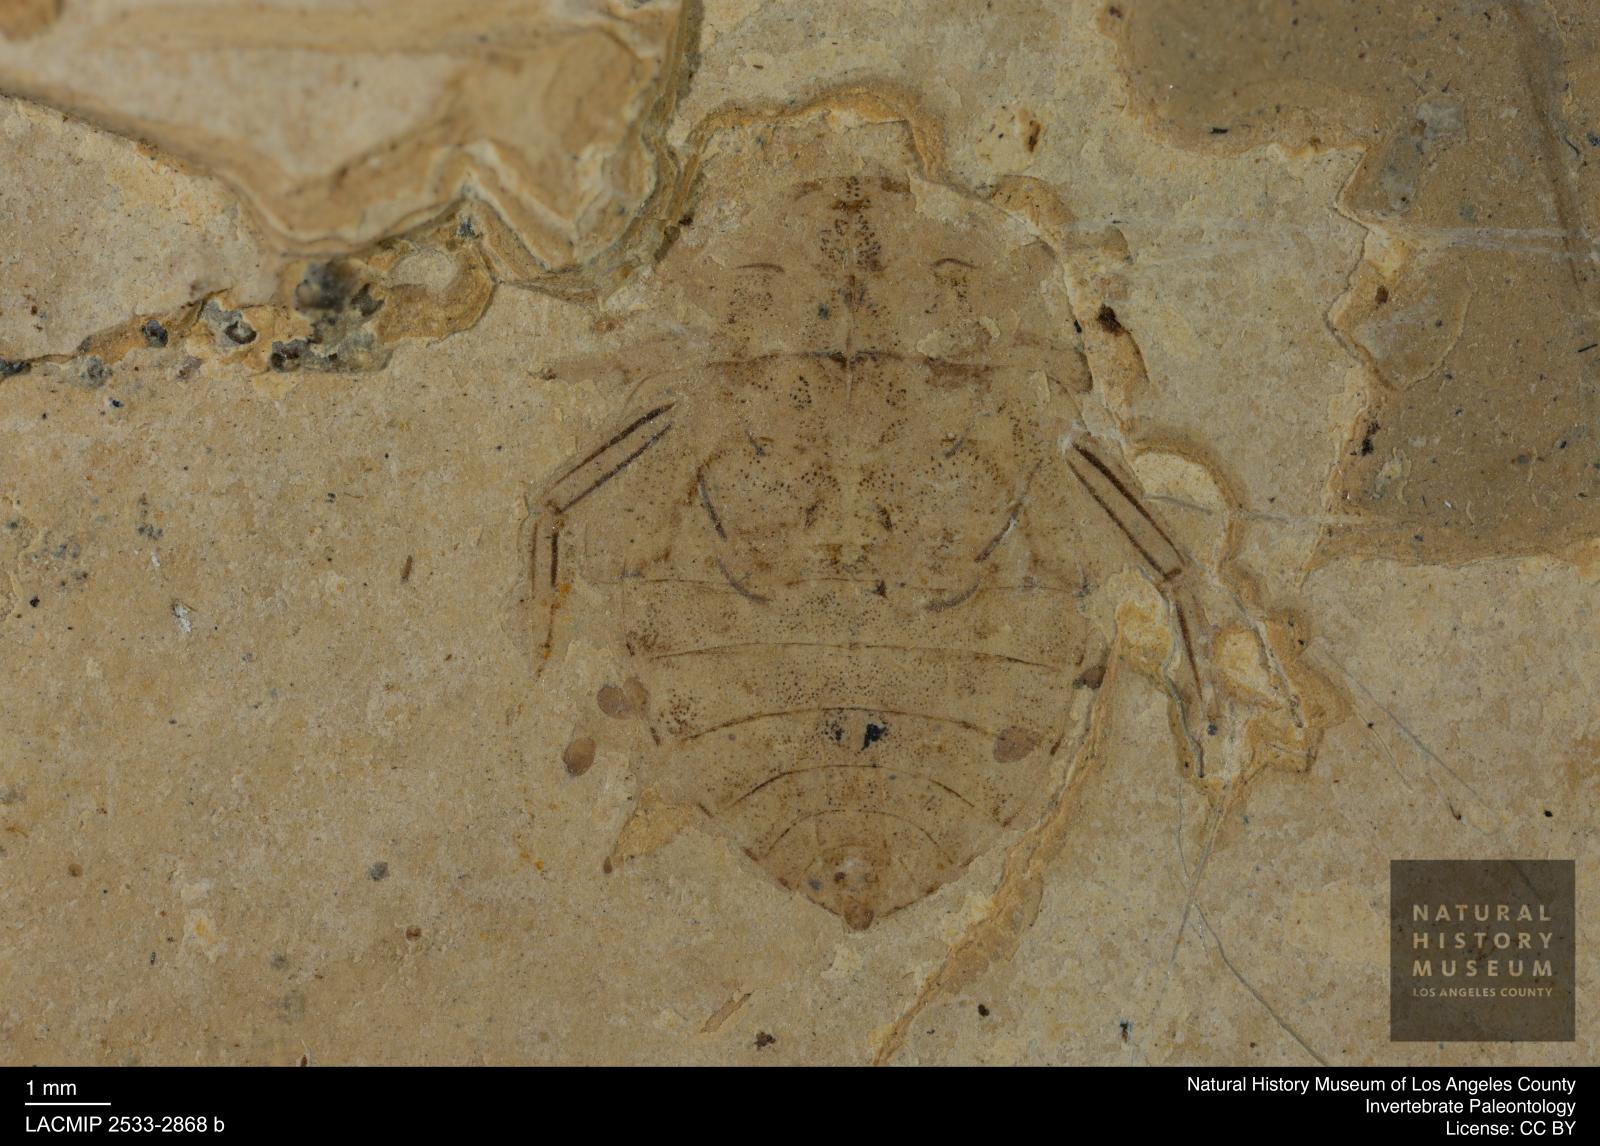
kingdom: Animalia
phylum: Arthropoda
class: Insecta
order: Hemiptera
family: Naucoridae
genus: Naucoris
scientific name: Naucoris rottensis
